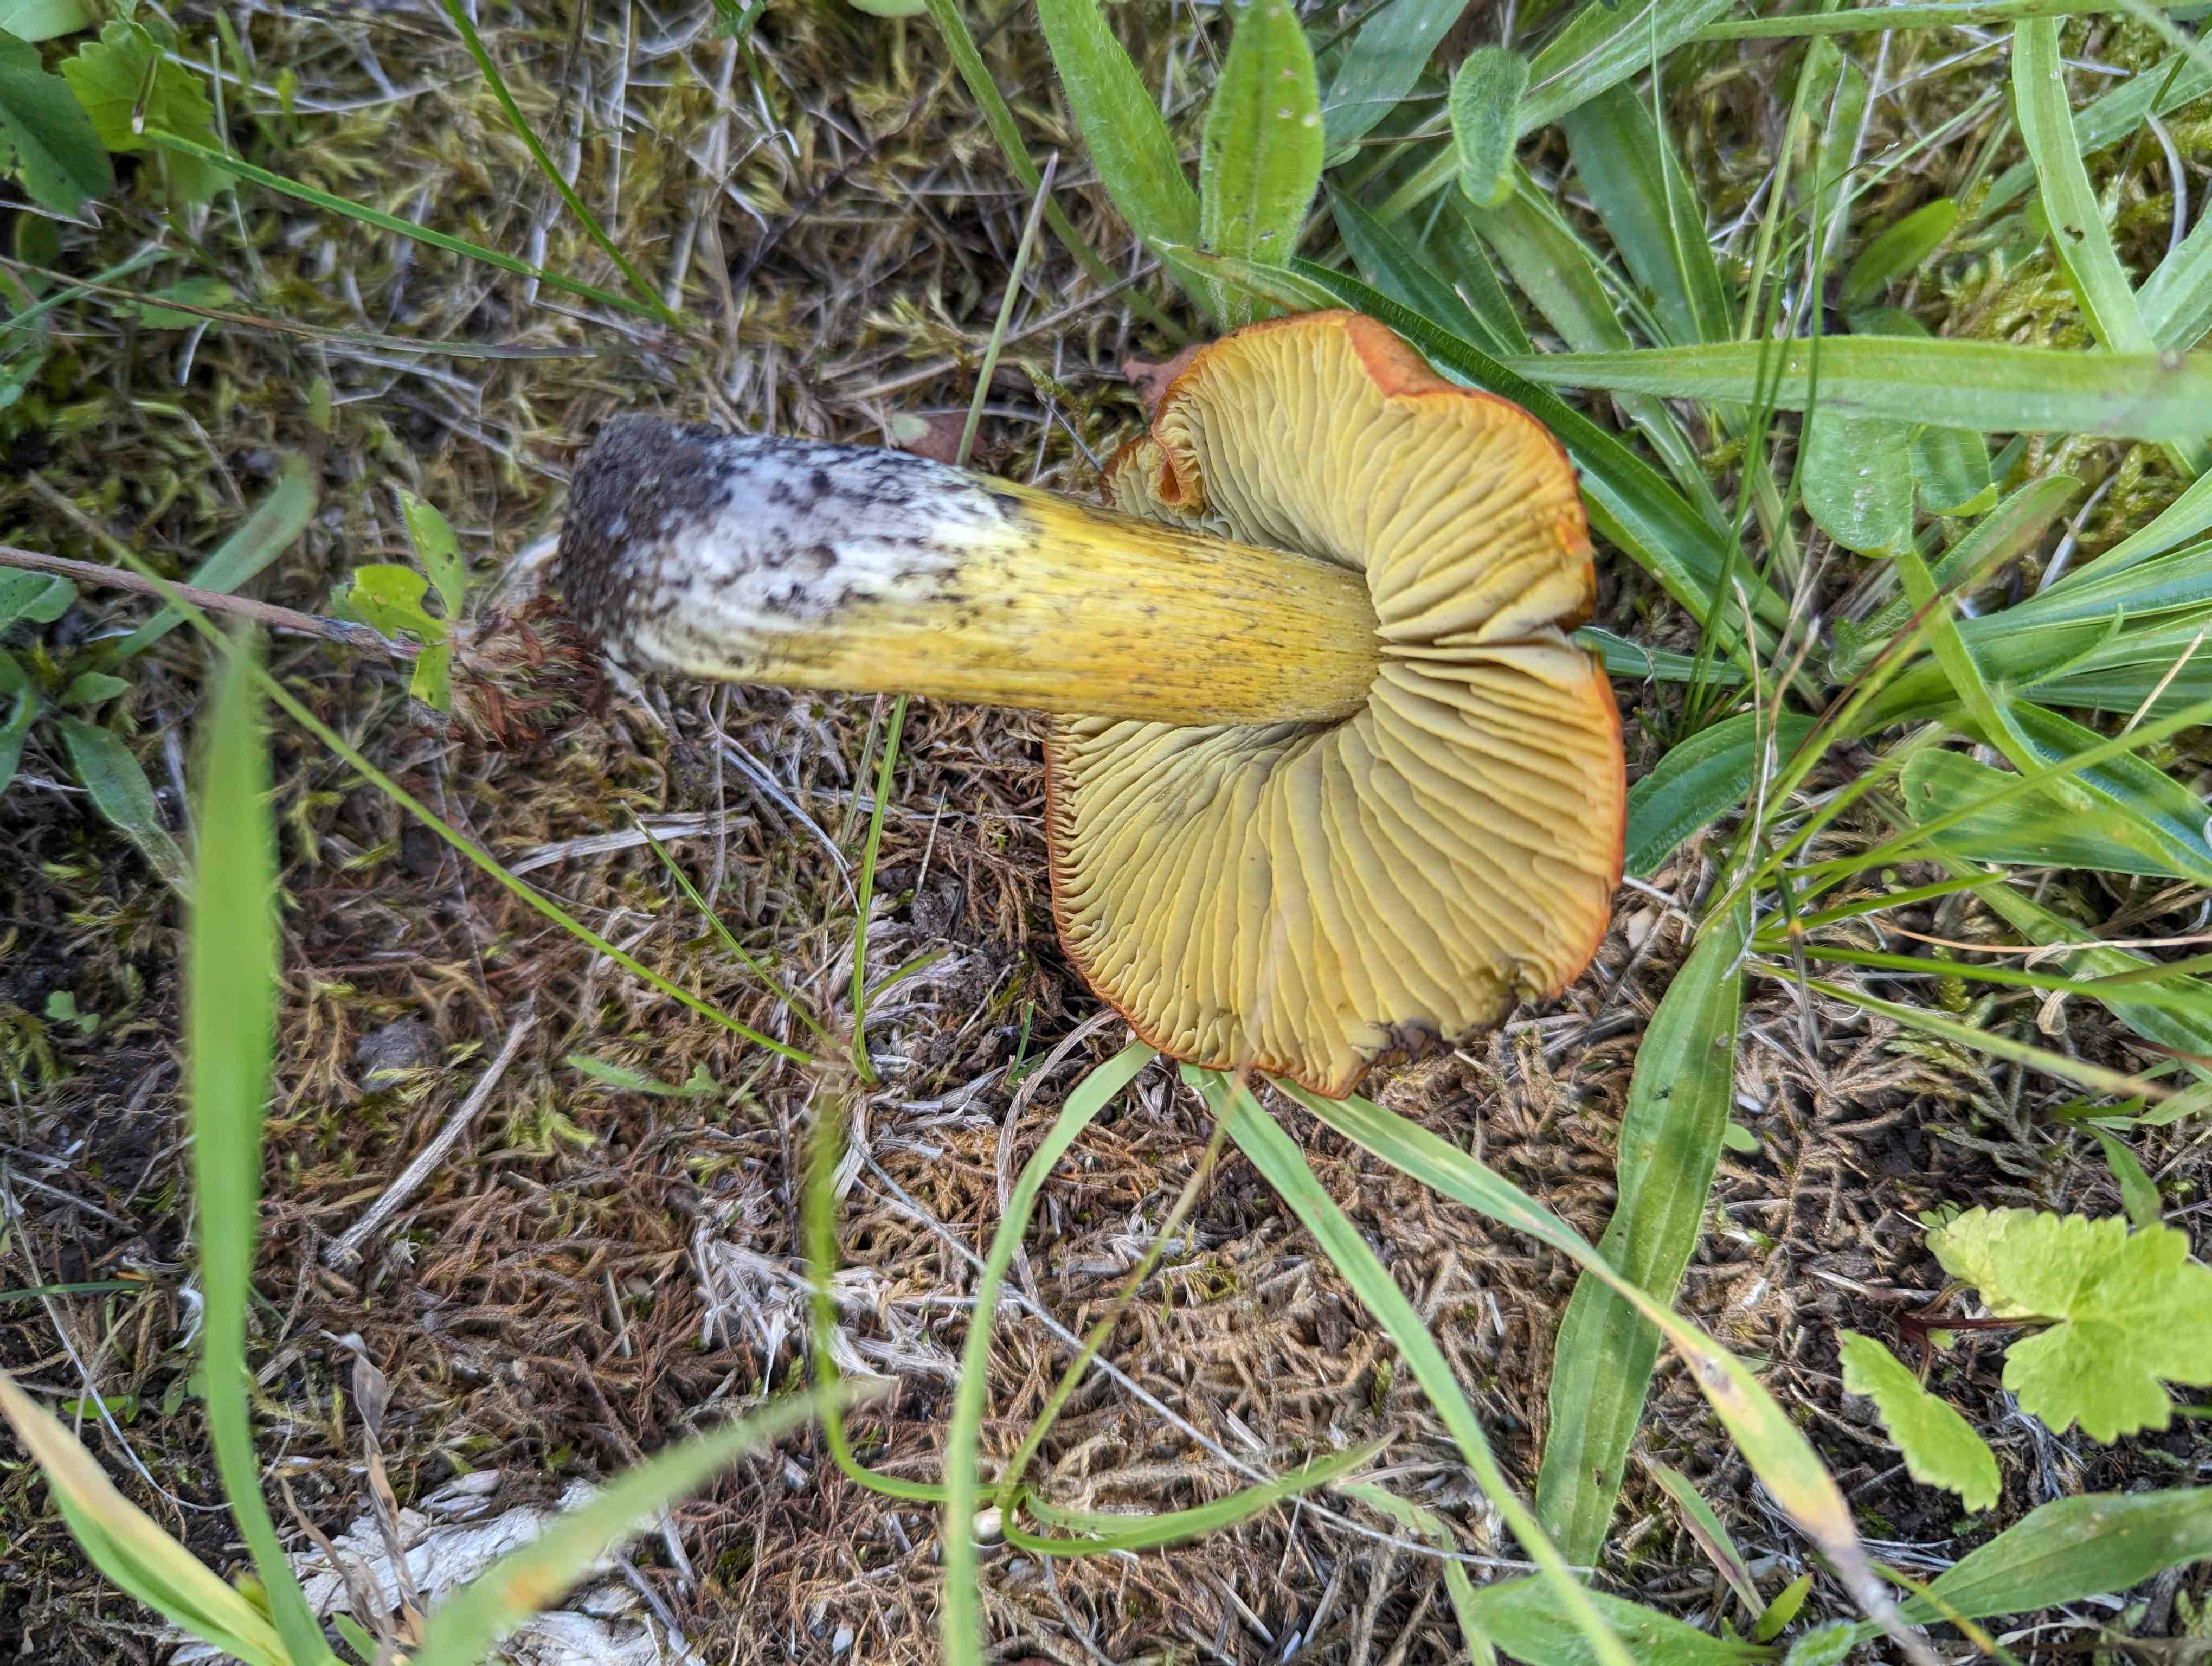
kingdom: Fungi
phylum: Basidiomycota
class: Agaricomycetes
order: Agaricales
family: Hygrophoraceae
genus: Hygrocybe
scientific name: Hygrocybe conica
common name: Blackening wax-cap
